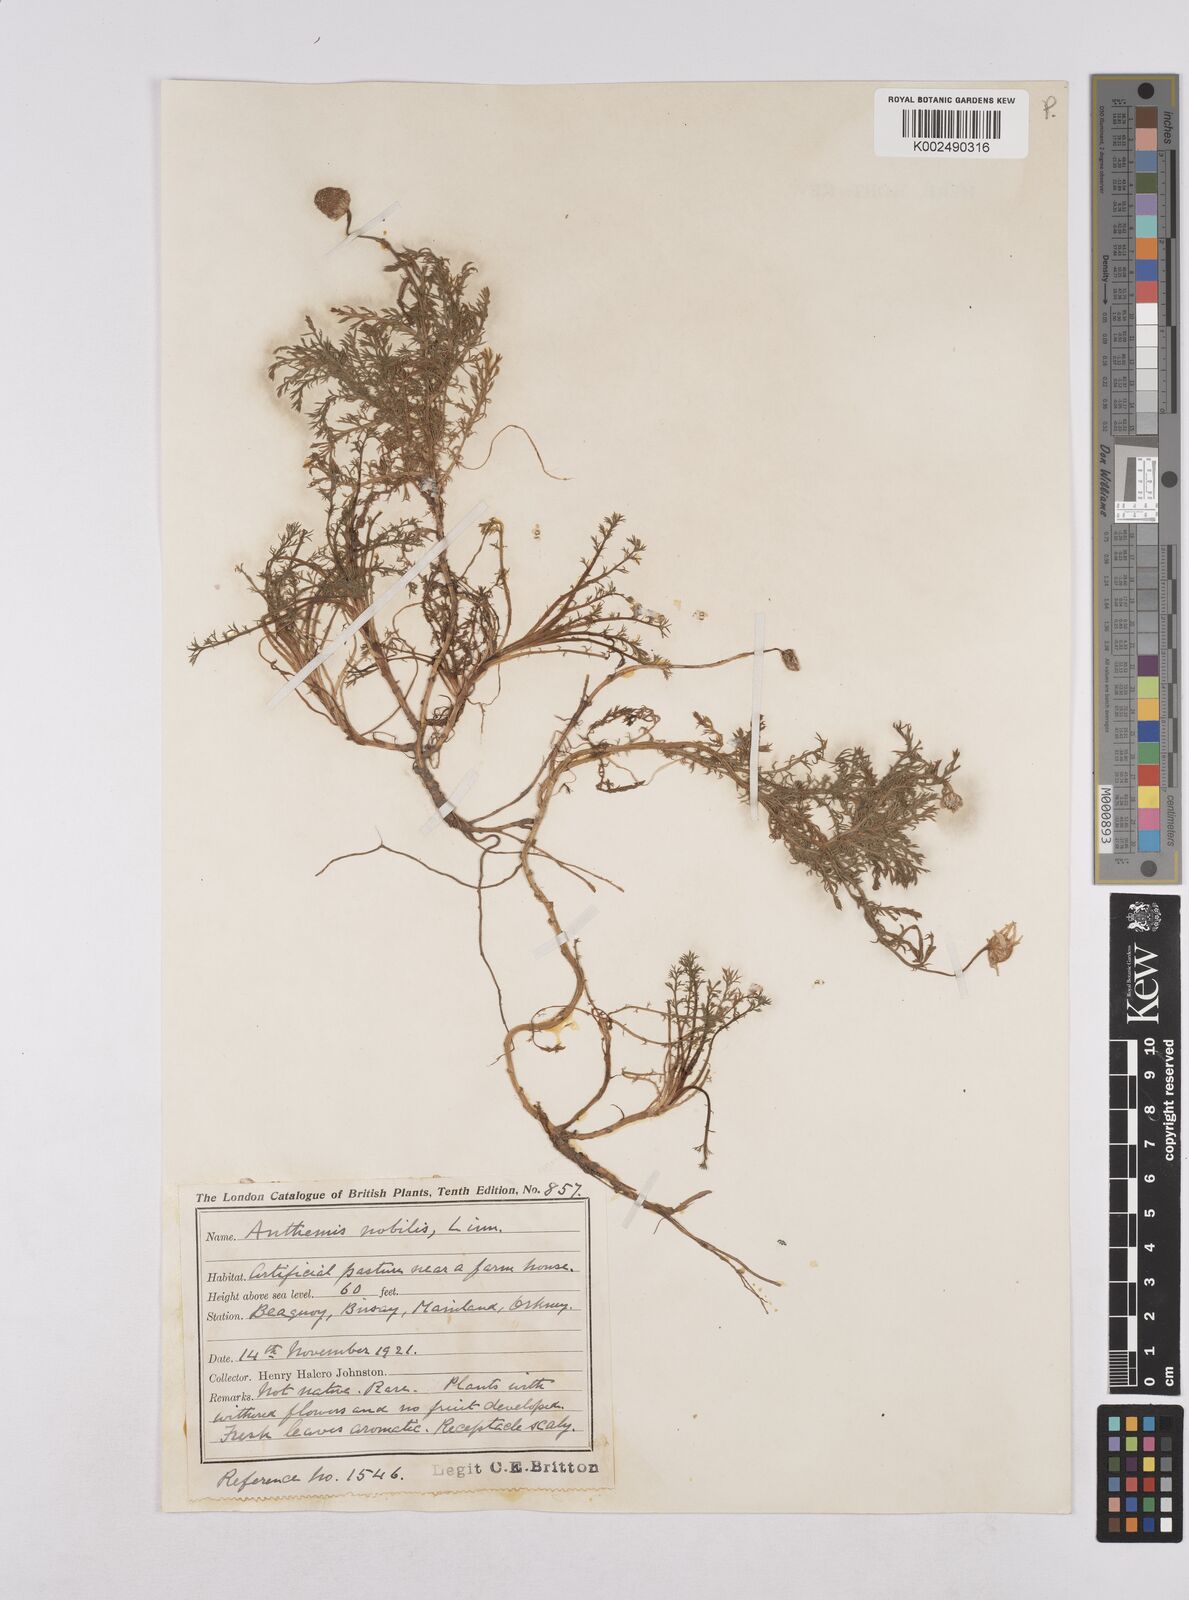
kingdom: Plantae
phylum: Tracheophyta
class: Magnoliopsida
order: Asterales
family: Asteraceae
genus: Chamaemelum
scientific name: Chamaemelum nobile
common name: Roman chamomile
